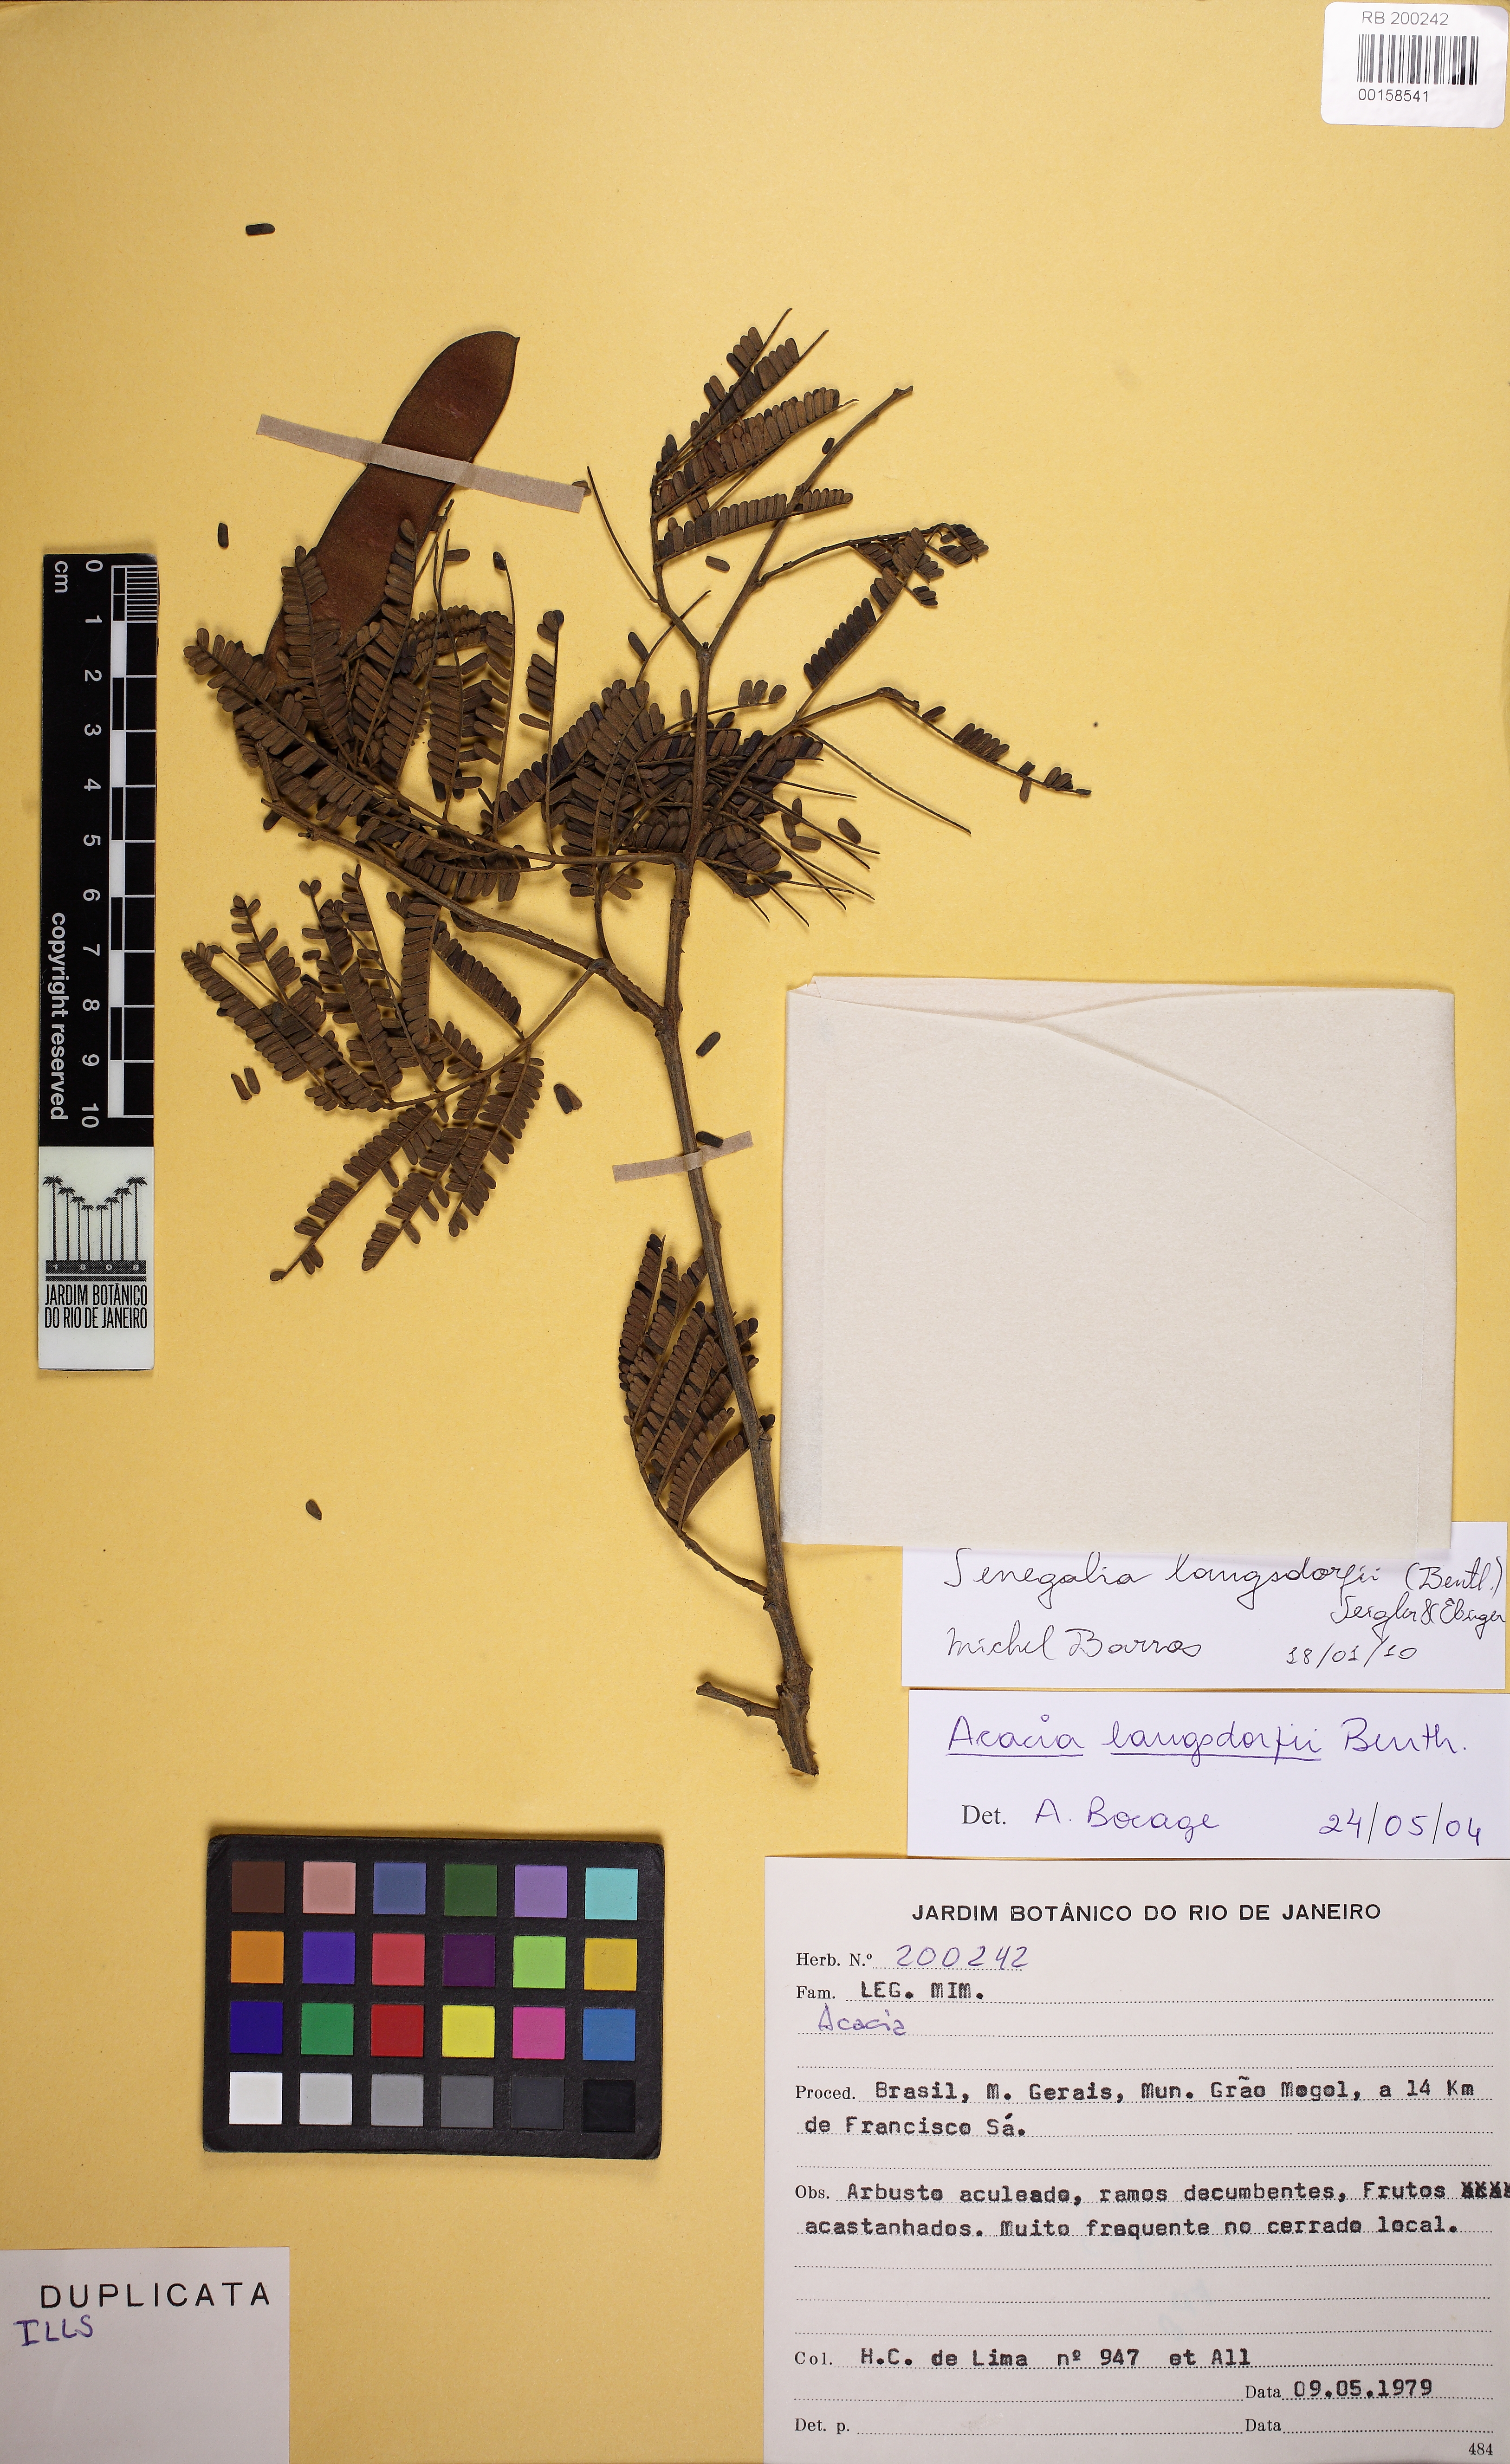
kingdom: Plantae
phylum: Tracheophyta
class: Magnoliopsida
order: Fabales
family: Fabaceae
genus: Senegalia
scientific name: Senegalia langsdorffii
